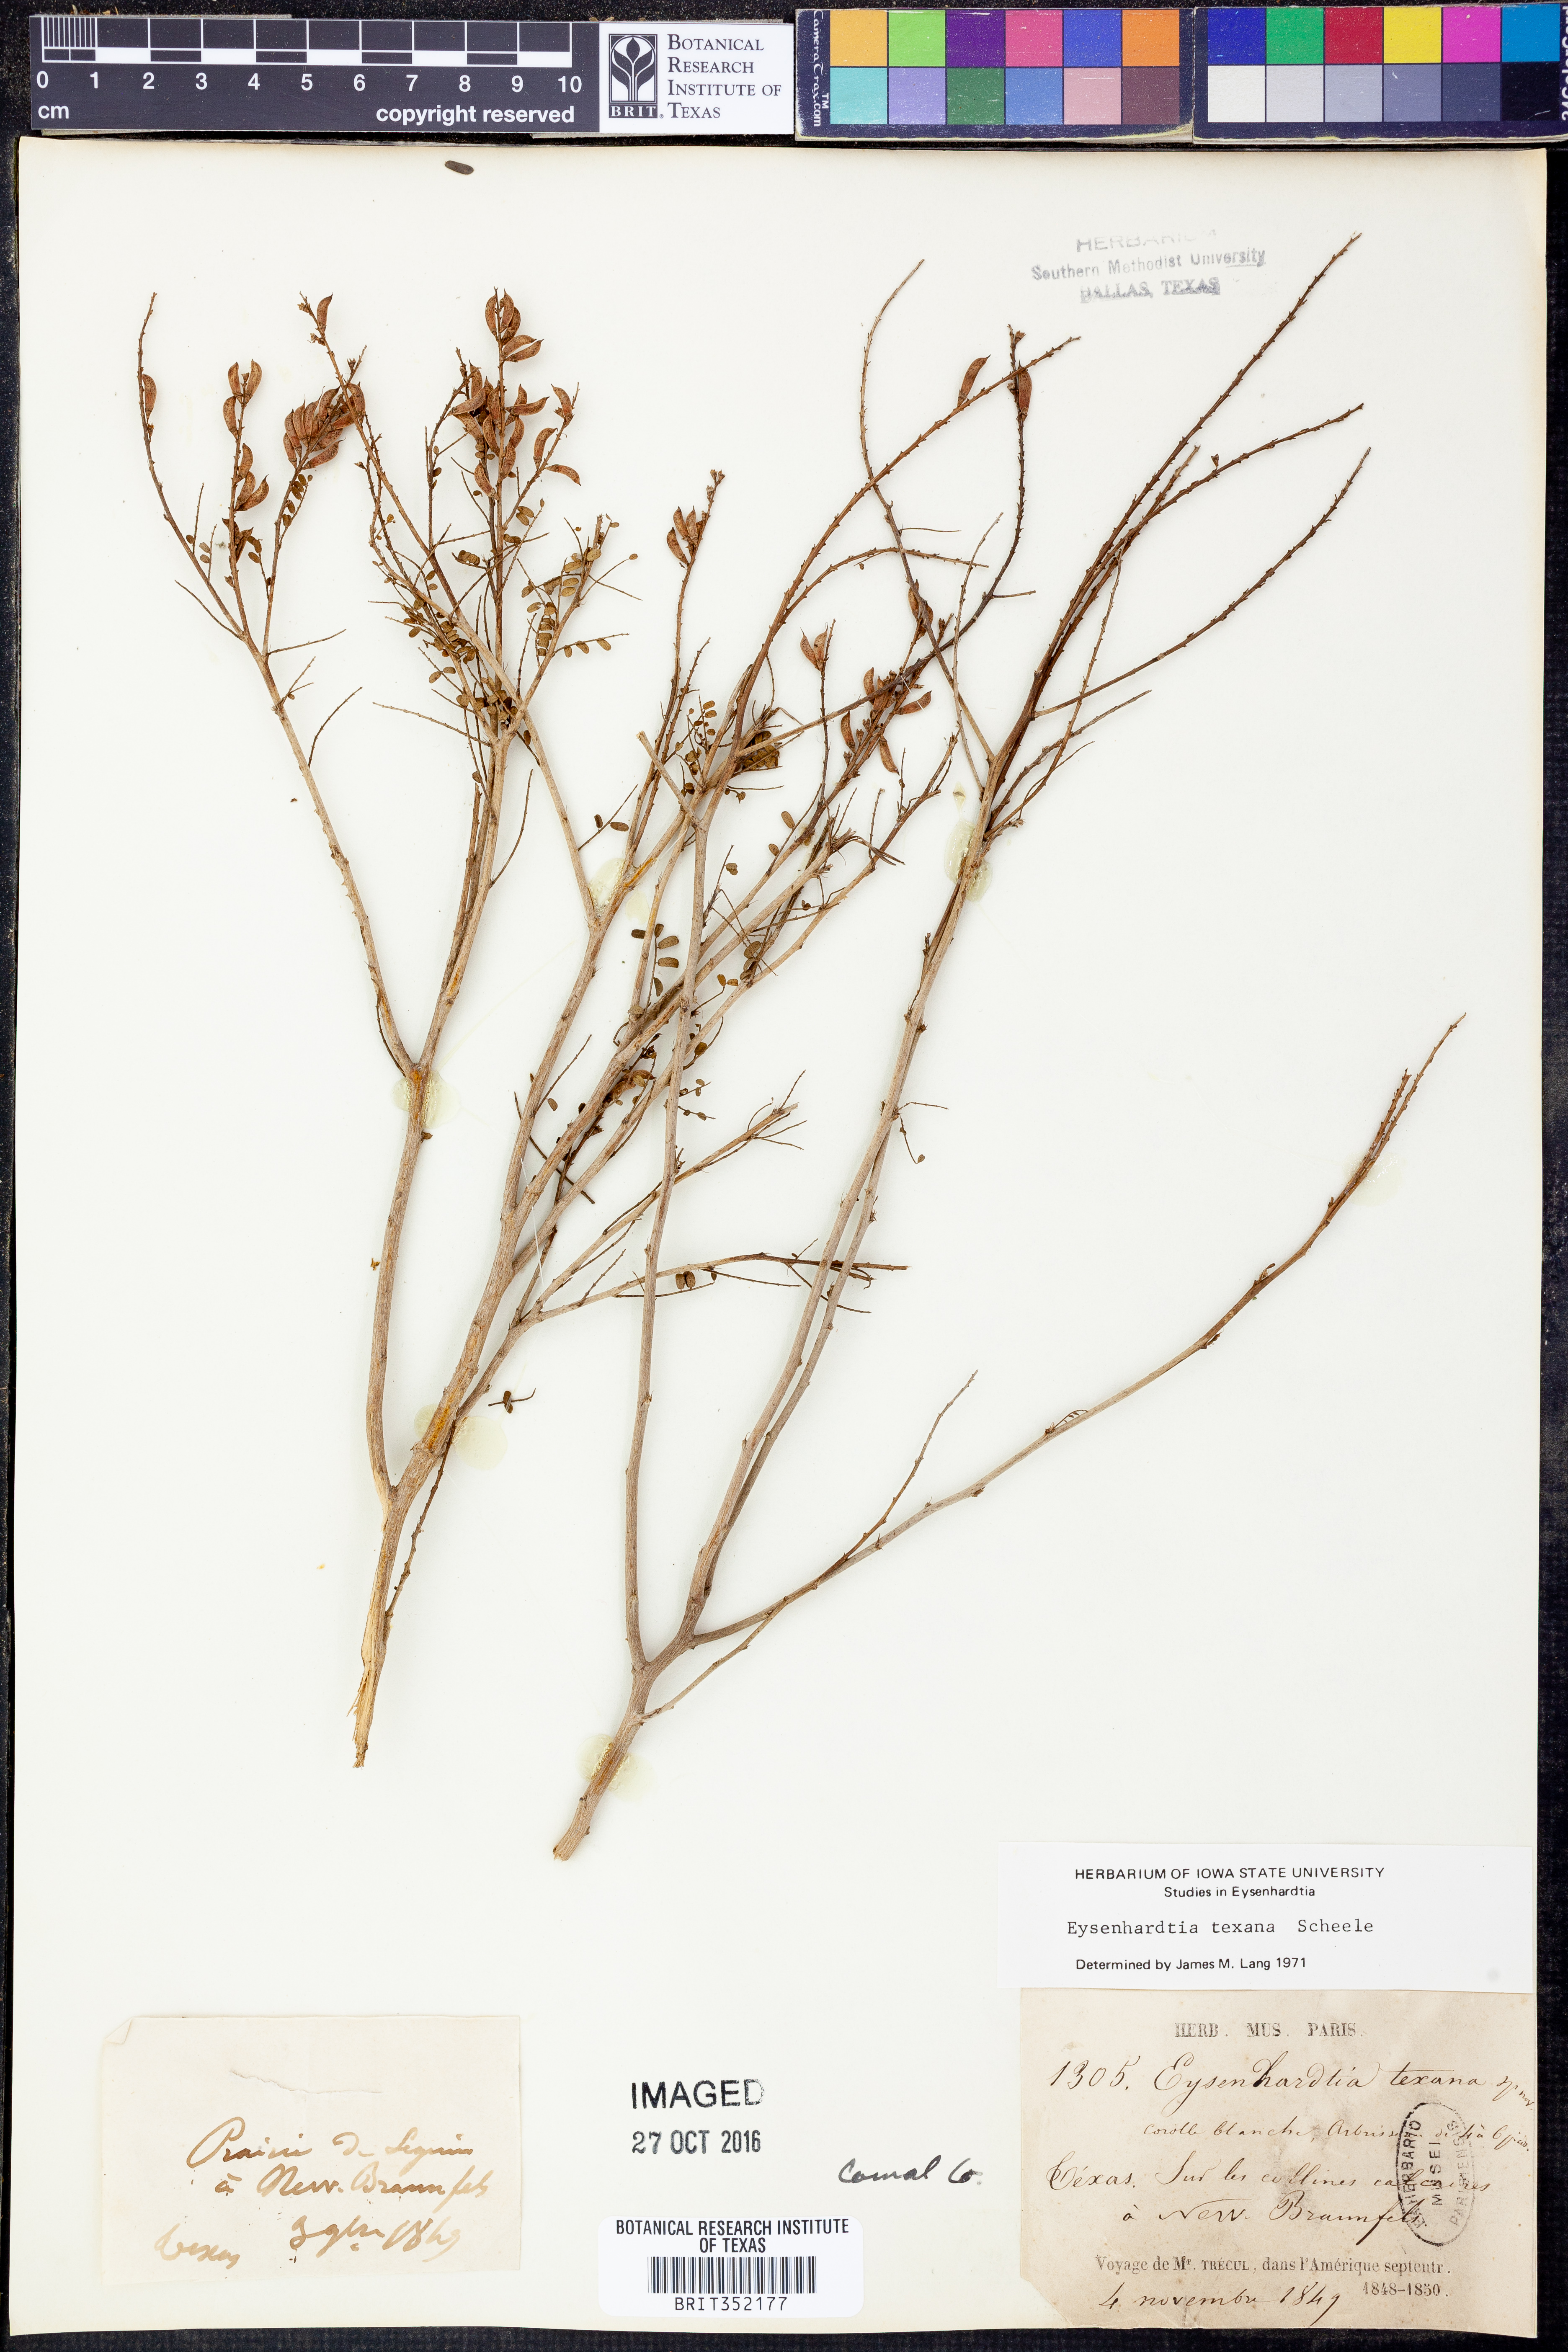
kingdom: Plantae
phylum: Tracheophyta
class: Magnoliopsida
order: Fabales
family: Fabaceae
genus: Eysenhardtia
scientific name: Eysenhardtia texana
